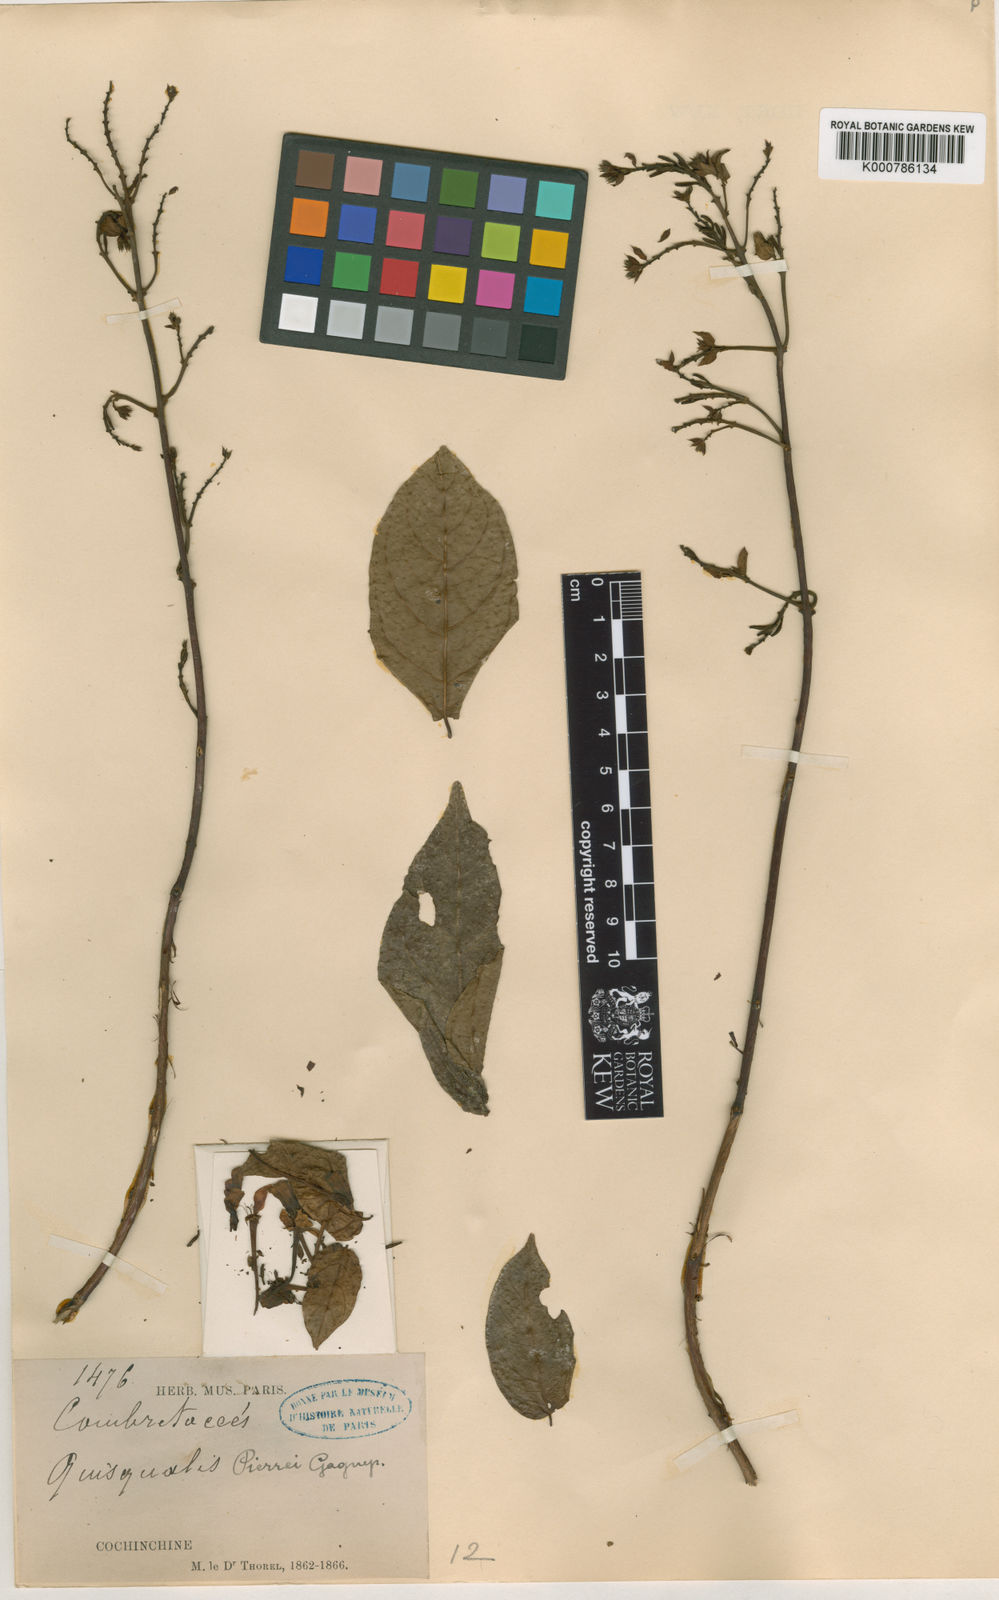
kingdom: Plantae
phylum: Tracheophyta
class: Magnoliopsida
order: Myrtales
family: Combretaceae
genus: Combretum
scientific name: Combretum pierrei
